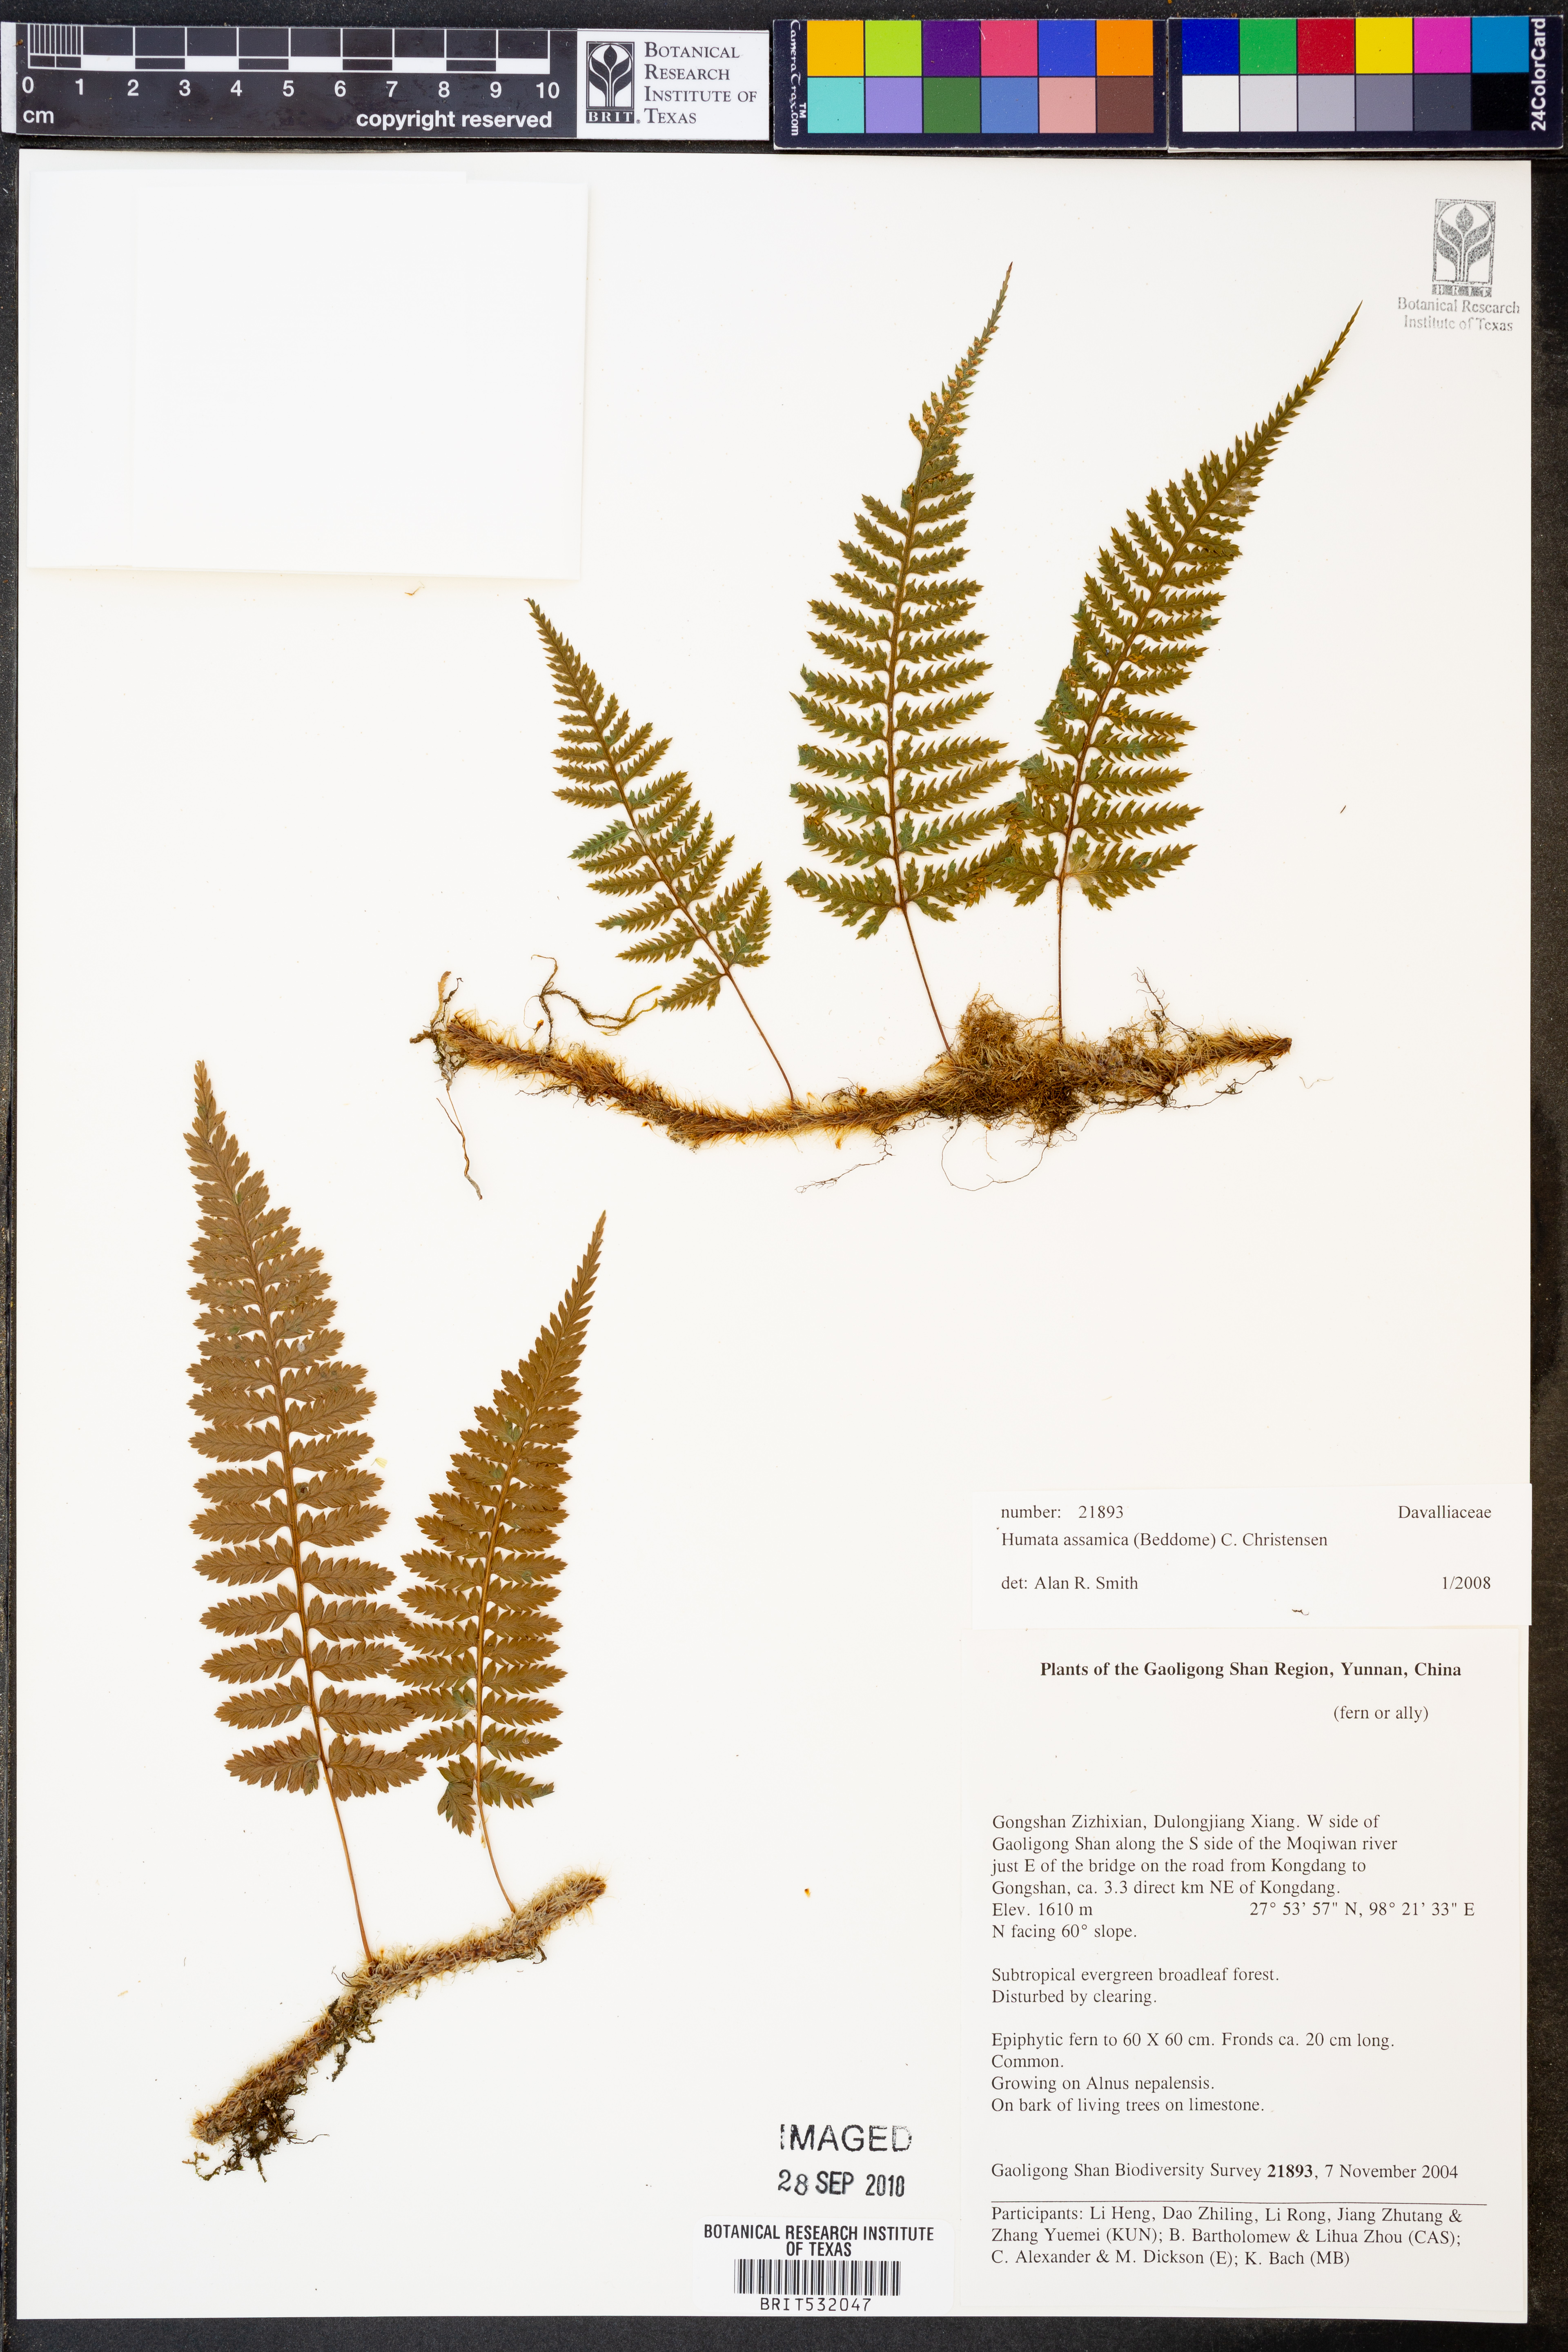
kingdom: Plantae
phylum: Tracheophyta
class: Polypodiopsida
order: Polypodiales
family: Davalliaceae
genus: Davallia
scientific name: Davallia assamica
